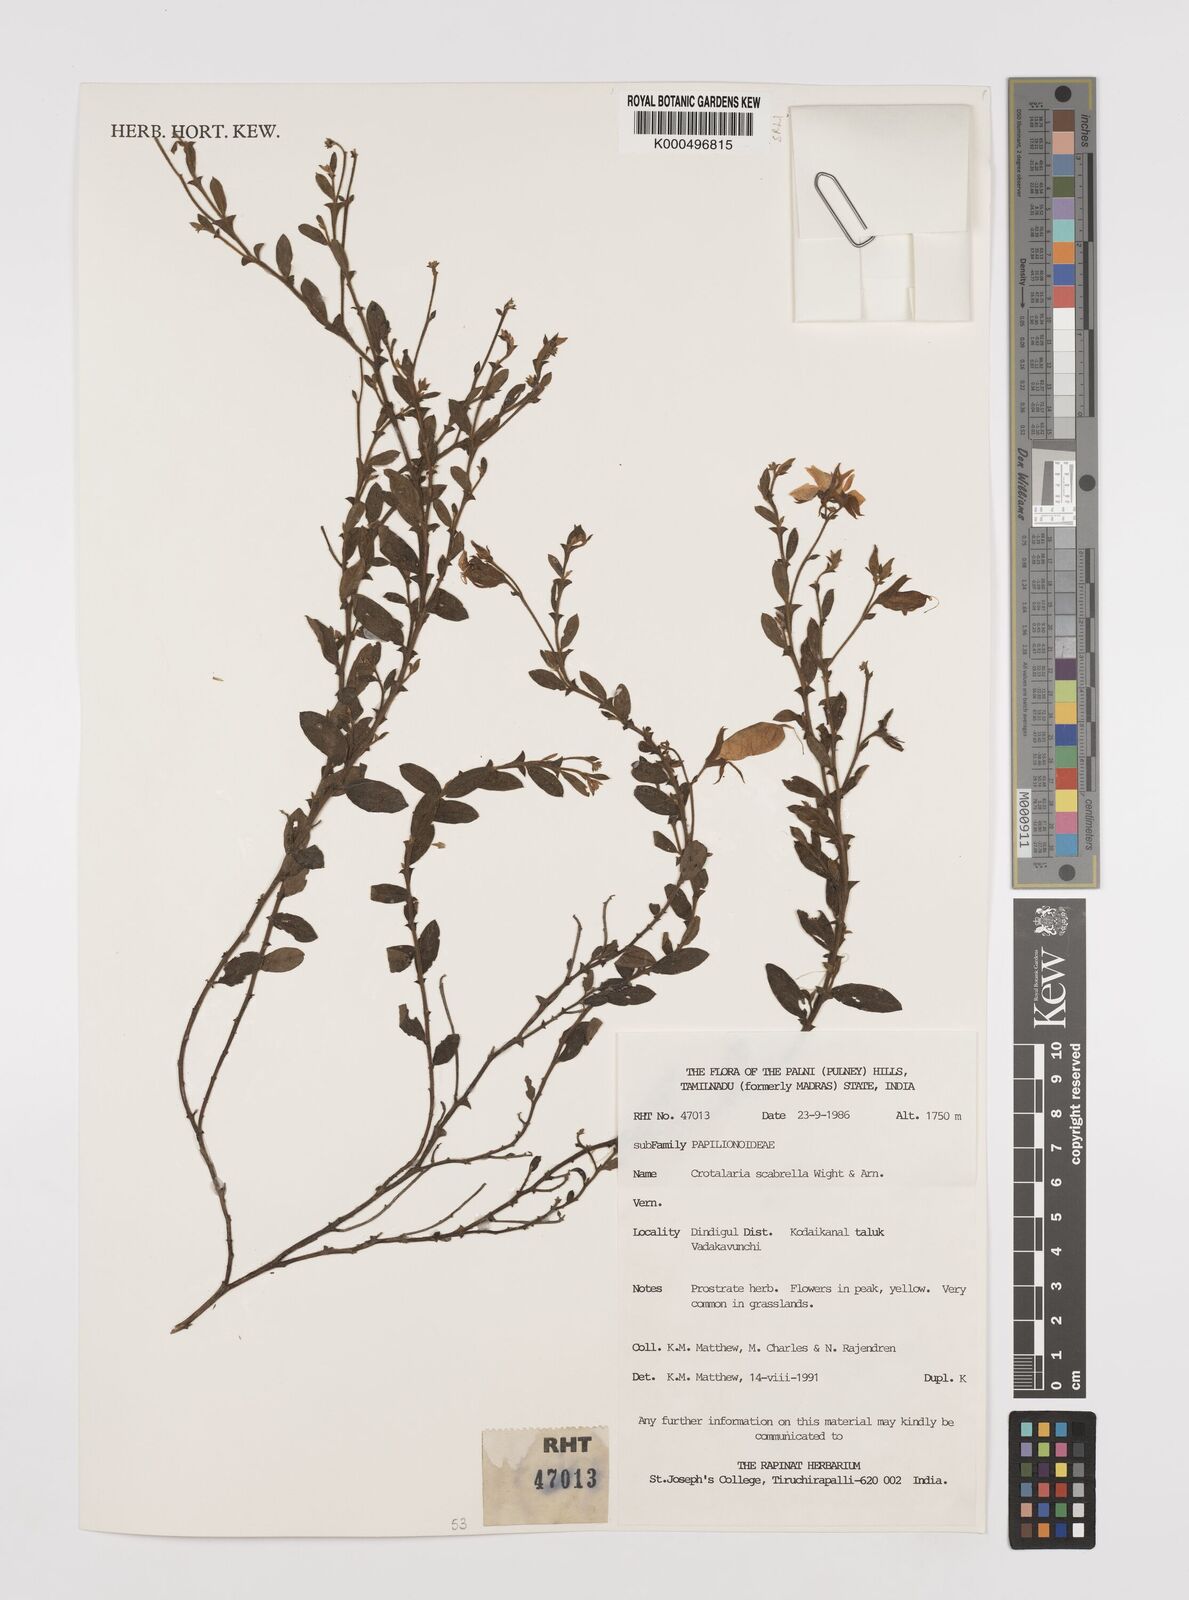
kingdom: Plantae
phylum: Tracheophyta
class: Magnoliopsida
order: Fabales
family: Fabaceae
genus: Crotalaria
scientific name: Crotalaria scabrella
